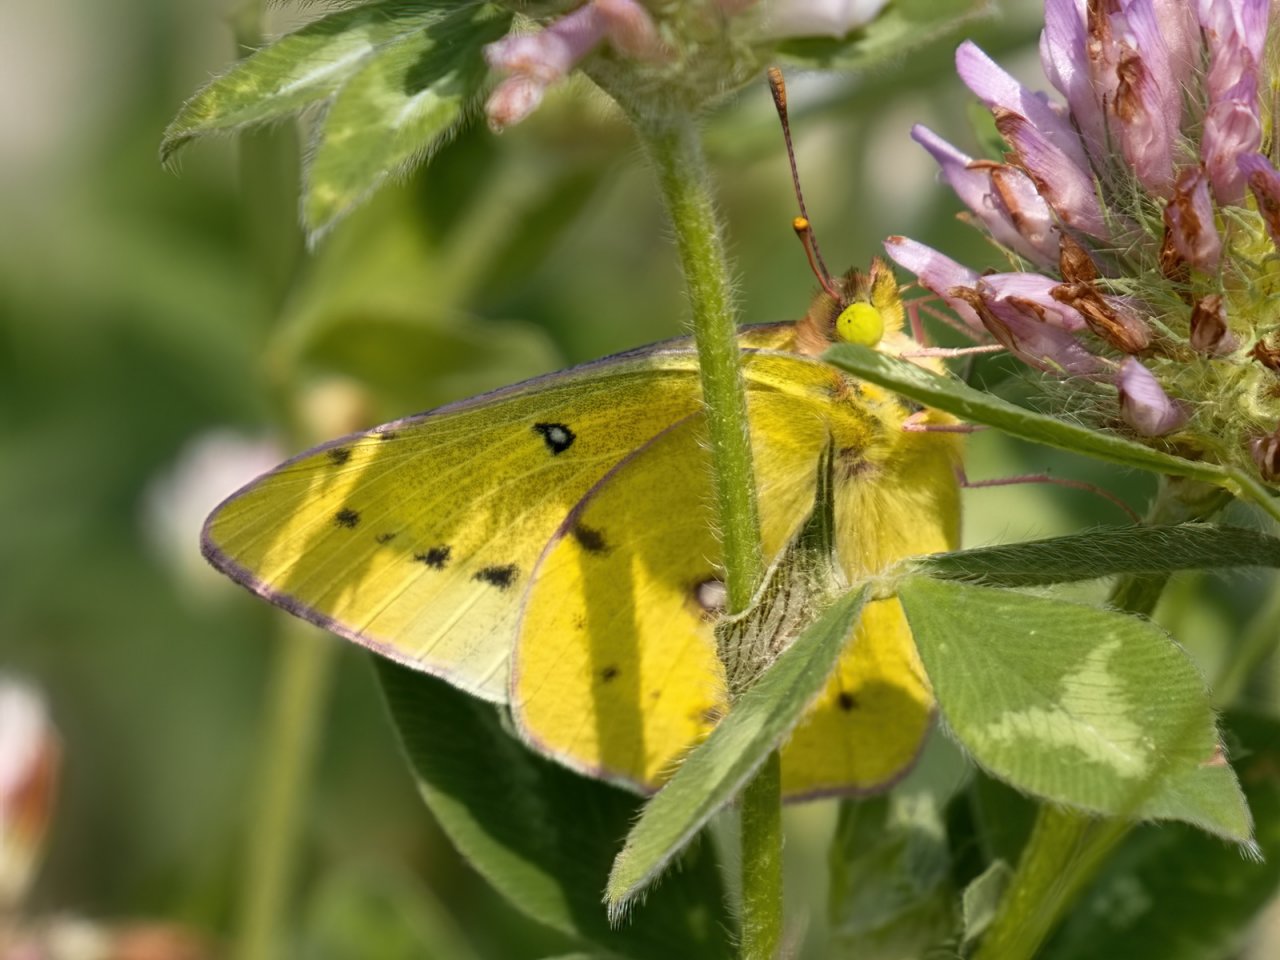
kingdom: Animalia
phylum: Arthropoda
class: Insecta
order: Lepidoptera
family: Pieridae
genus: Colias
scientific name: Colias eurytheme
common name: Orange Sulphur
